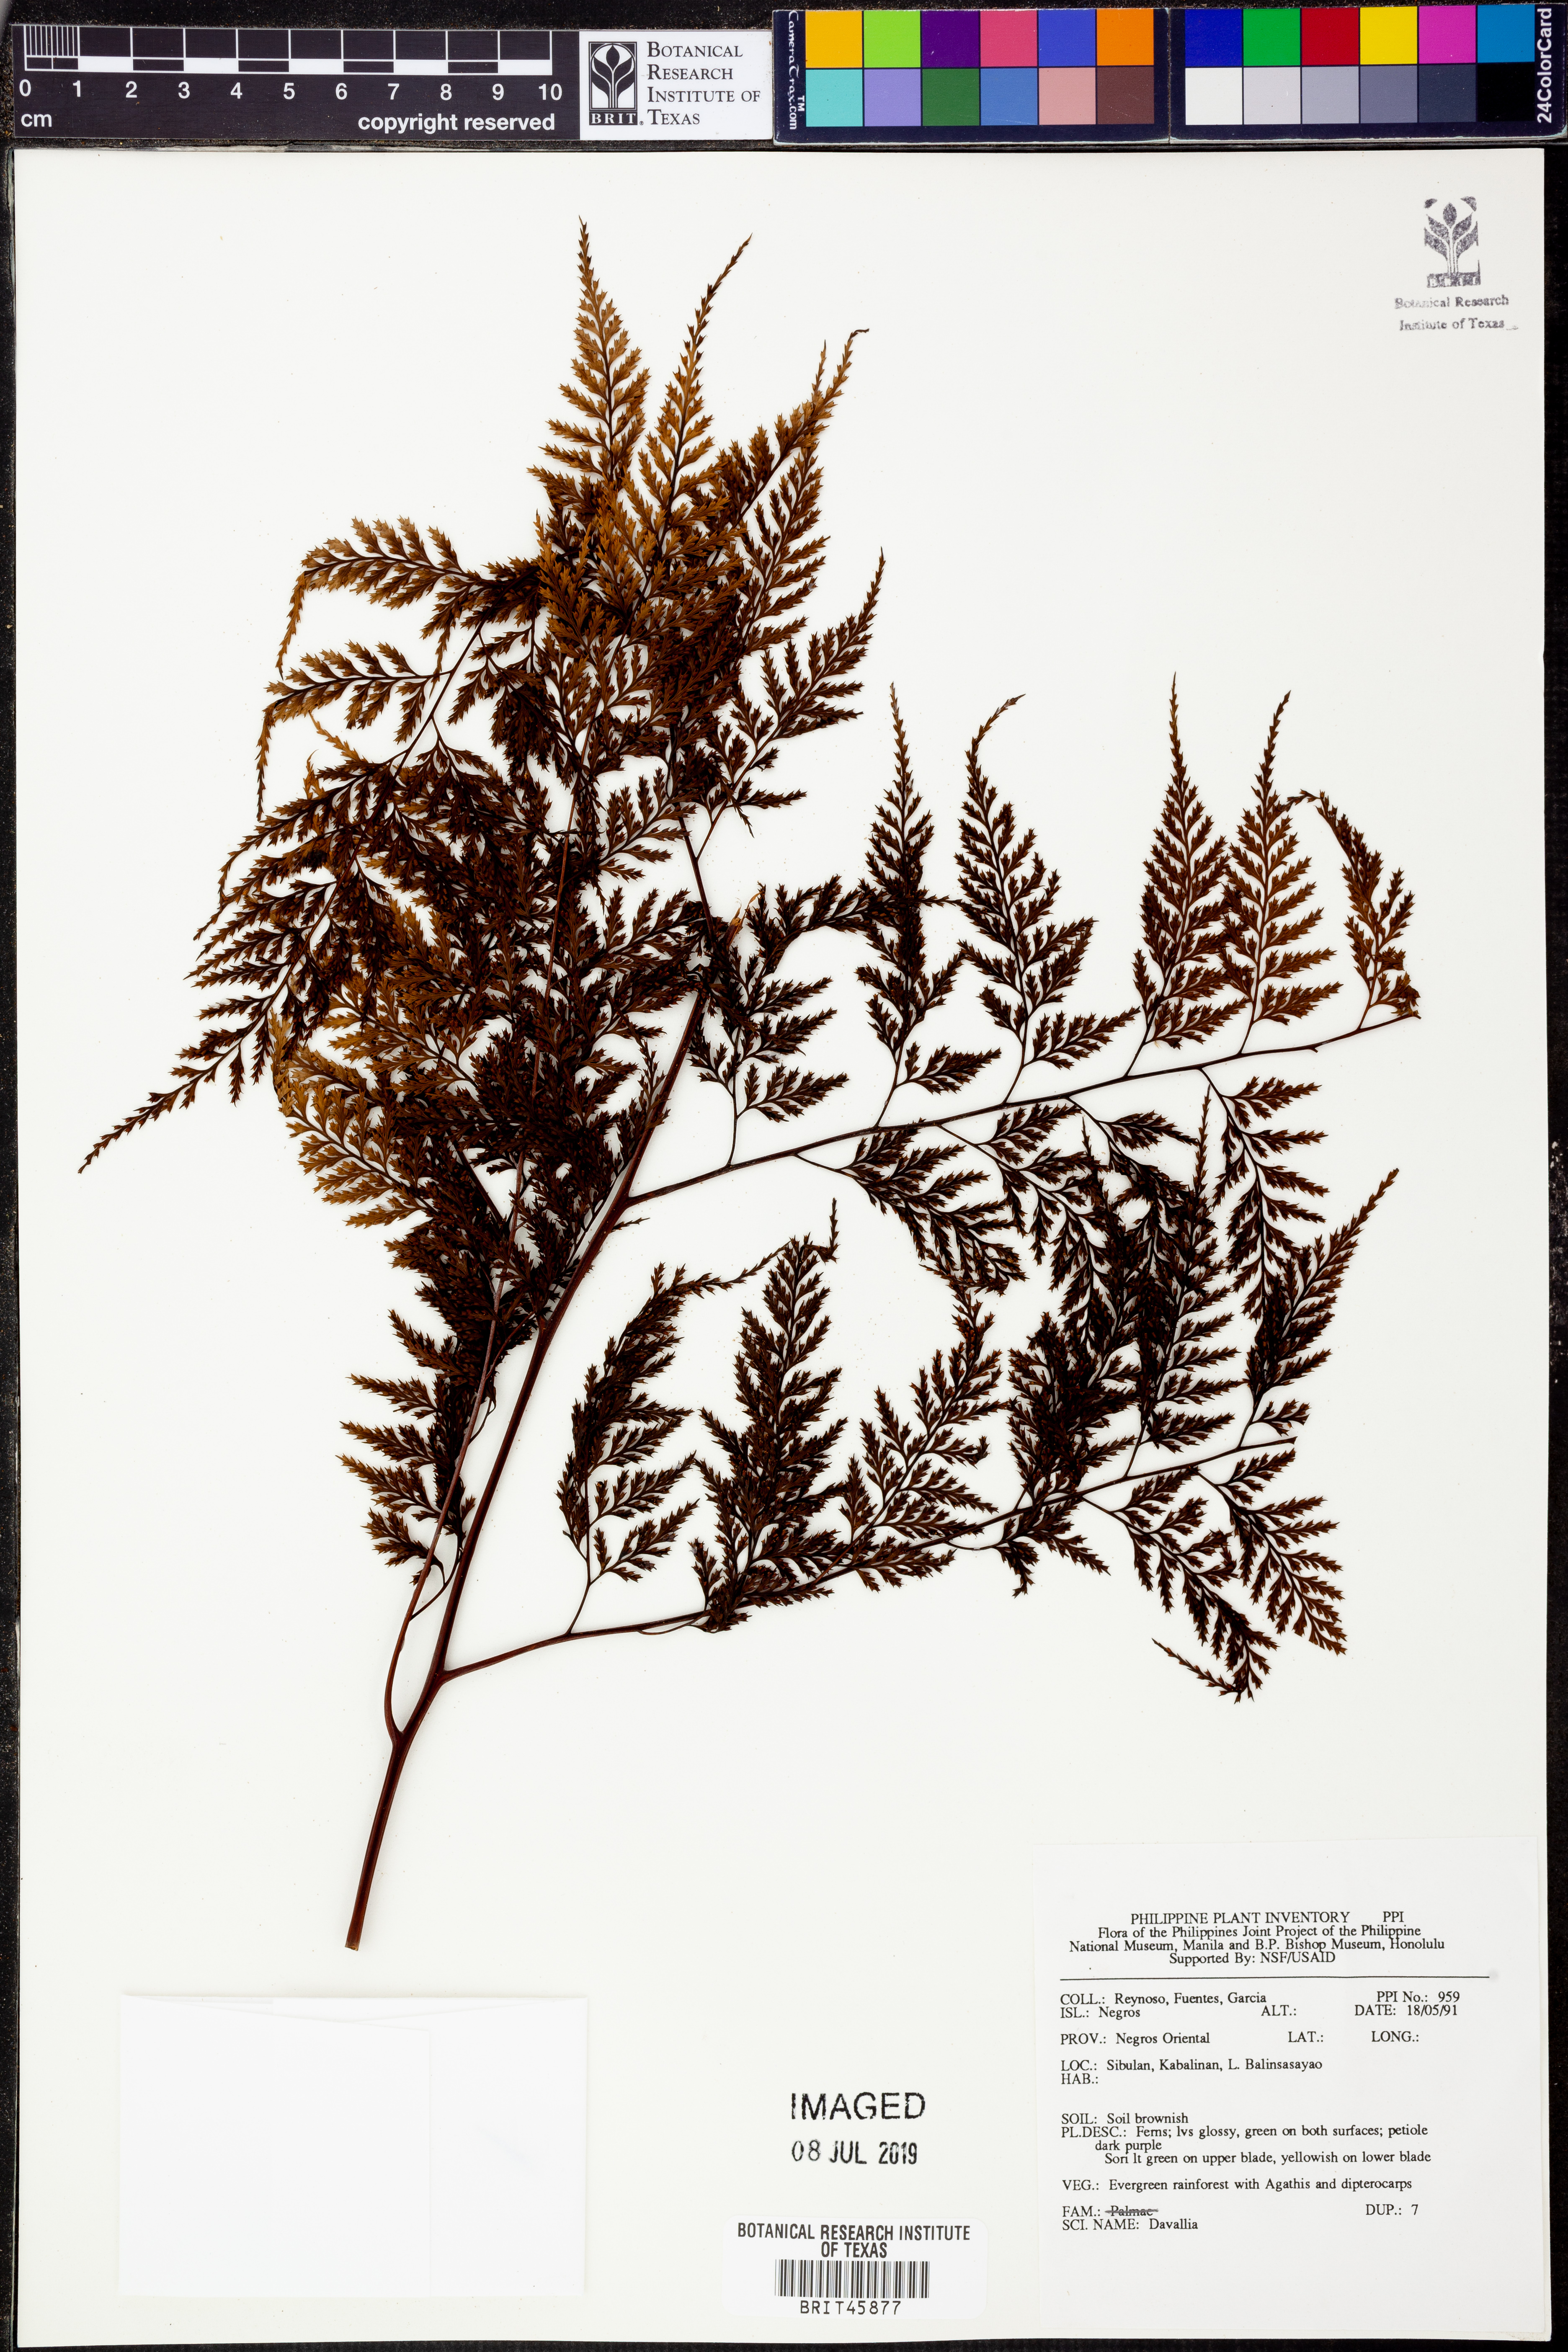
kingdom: Plantae
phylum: Tracheophyta
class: Polypodiopsida
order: Polypodiales
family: Davalliaceae
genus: Davallia
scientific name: Davallia
